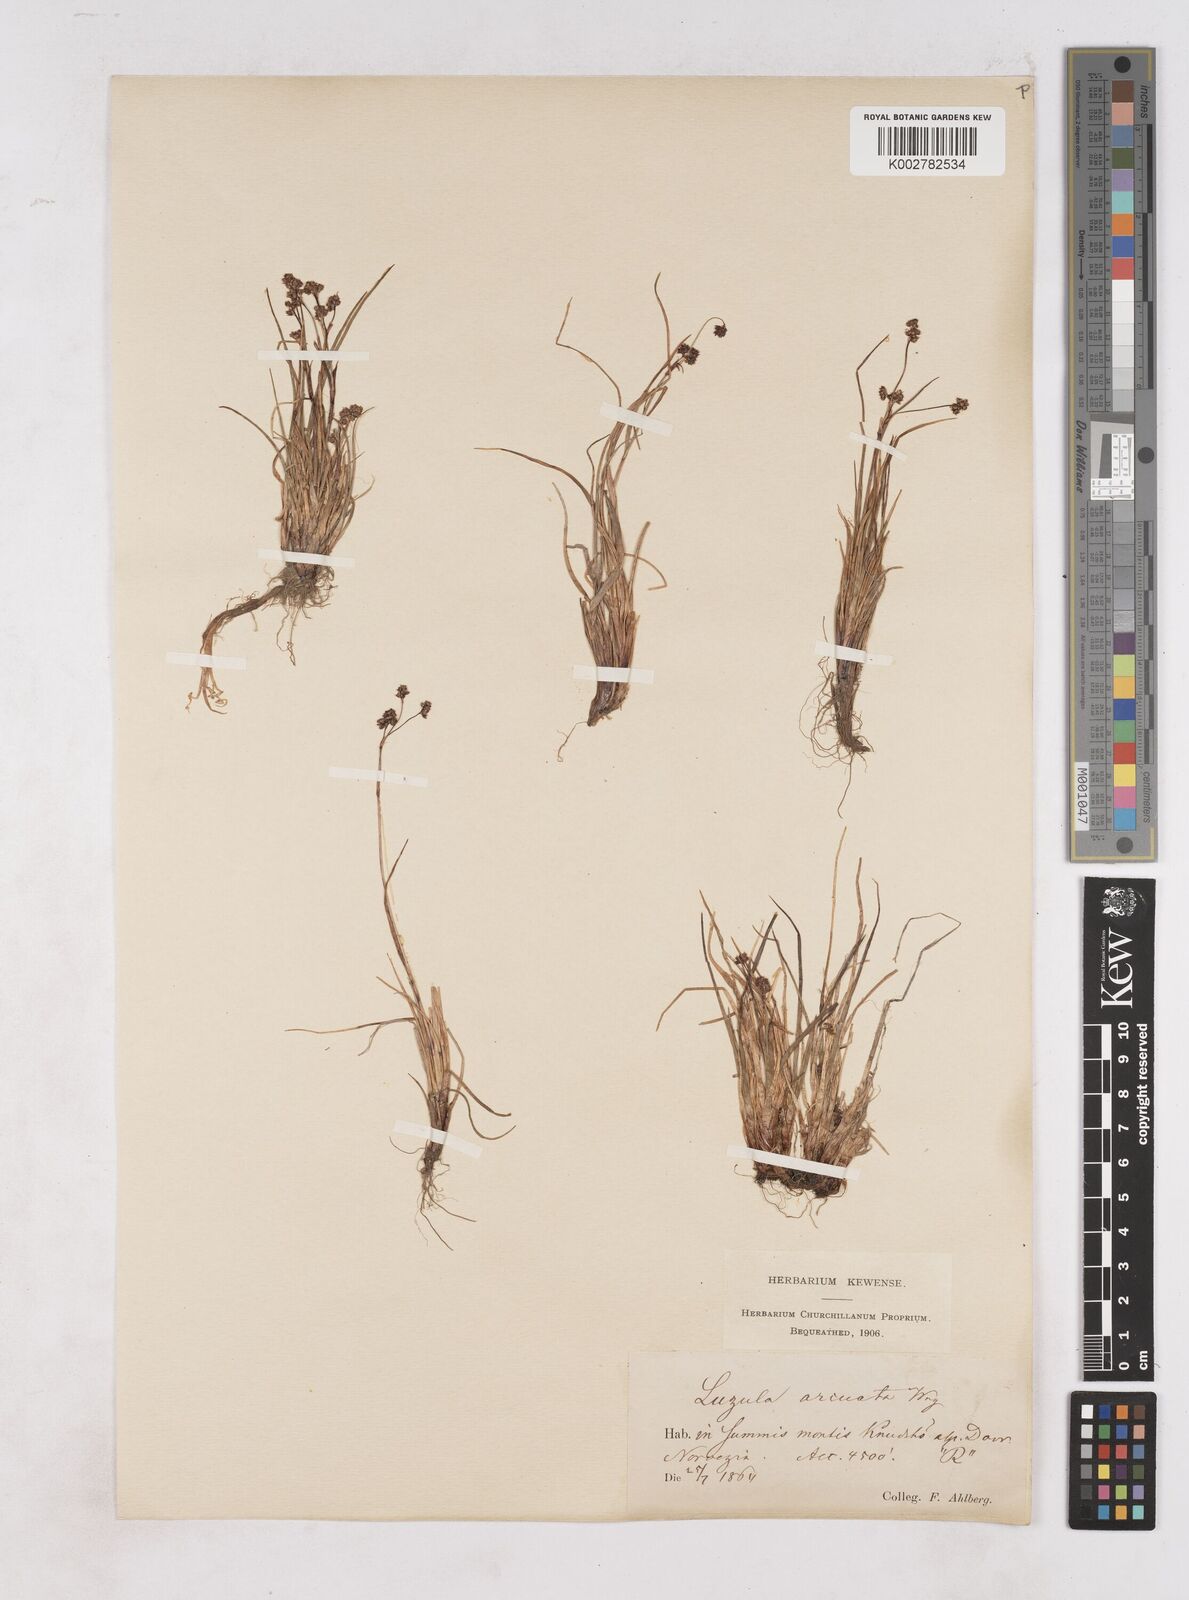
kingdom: Plantae
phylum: Tracheophyta
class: Liliopsida
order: Poales
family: Juncaceae
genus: Luzula
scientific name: Luzula arcuata
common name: Curved wood-rush
